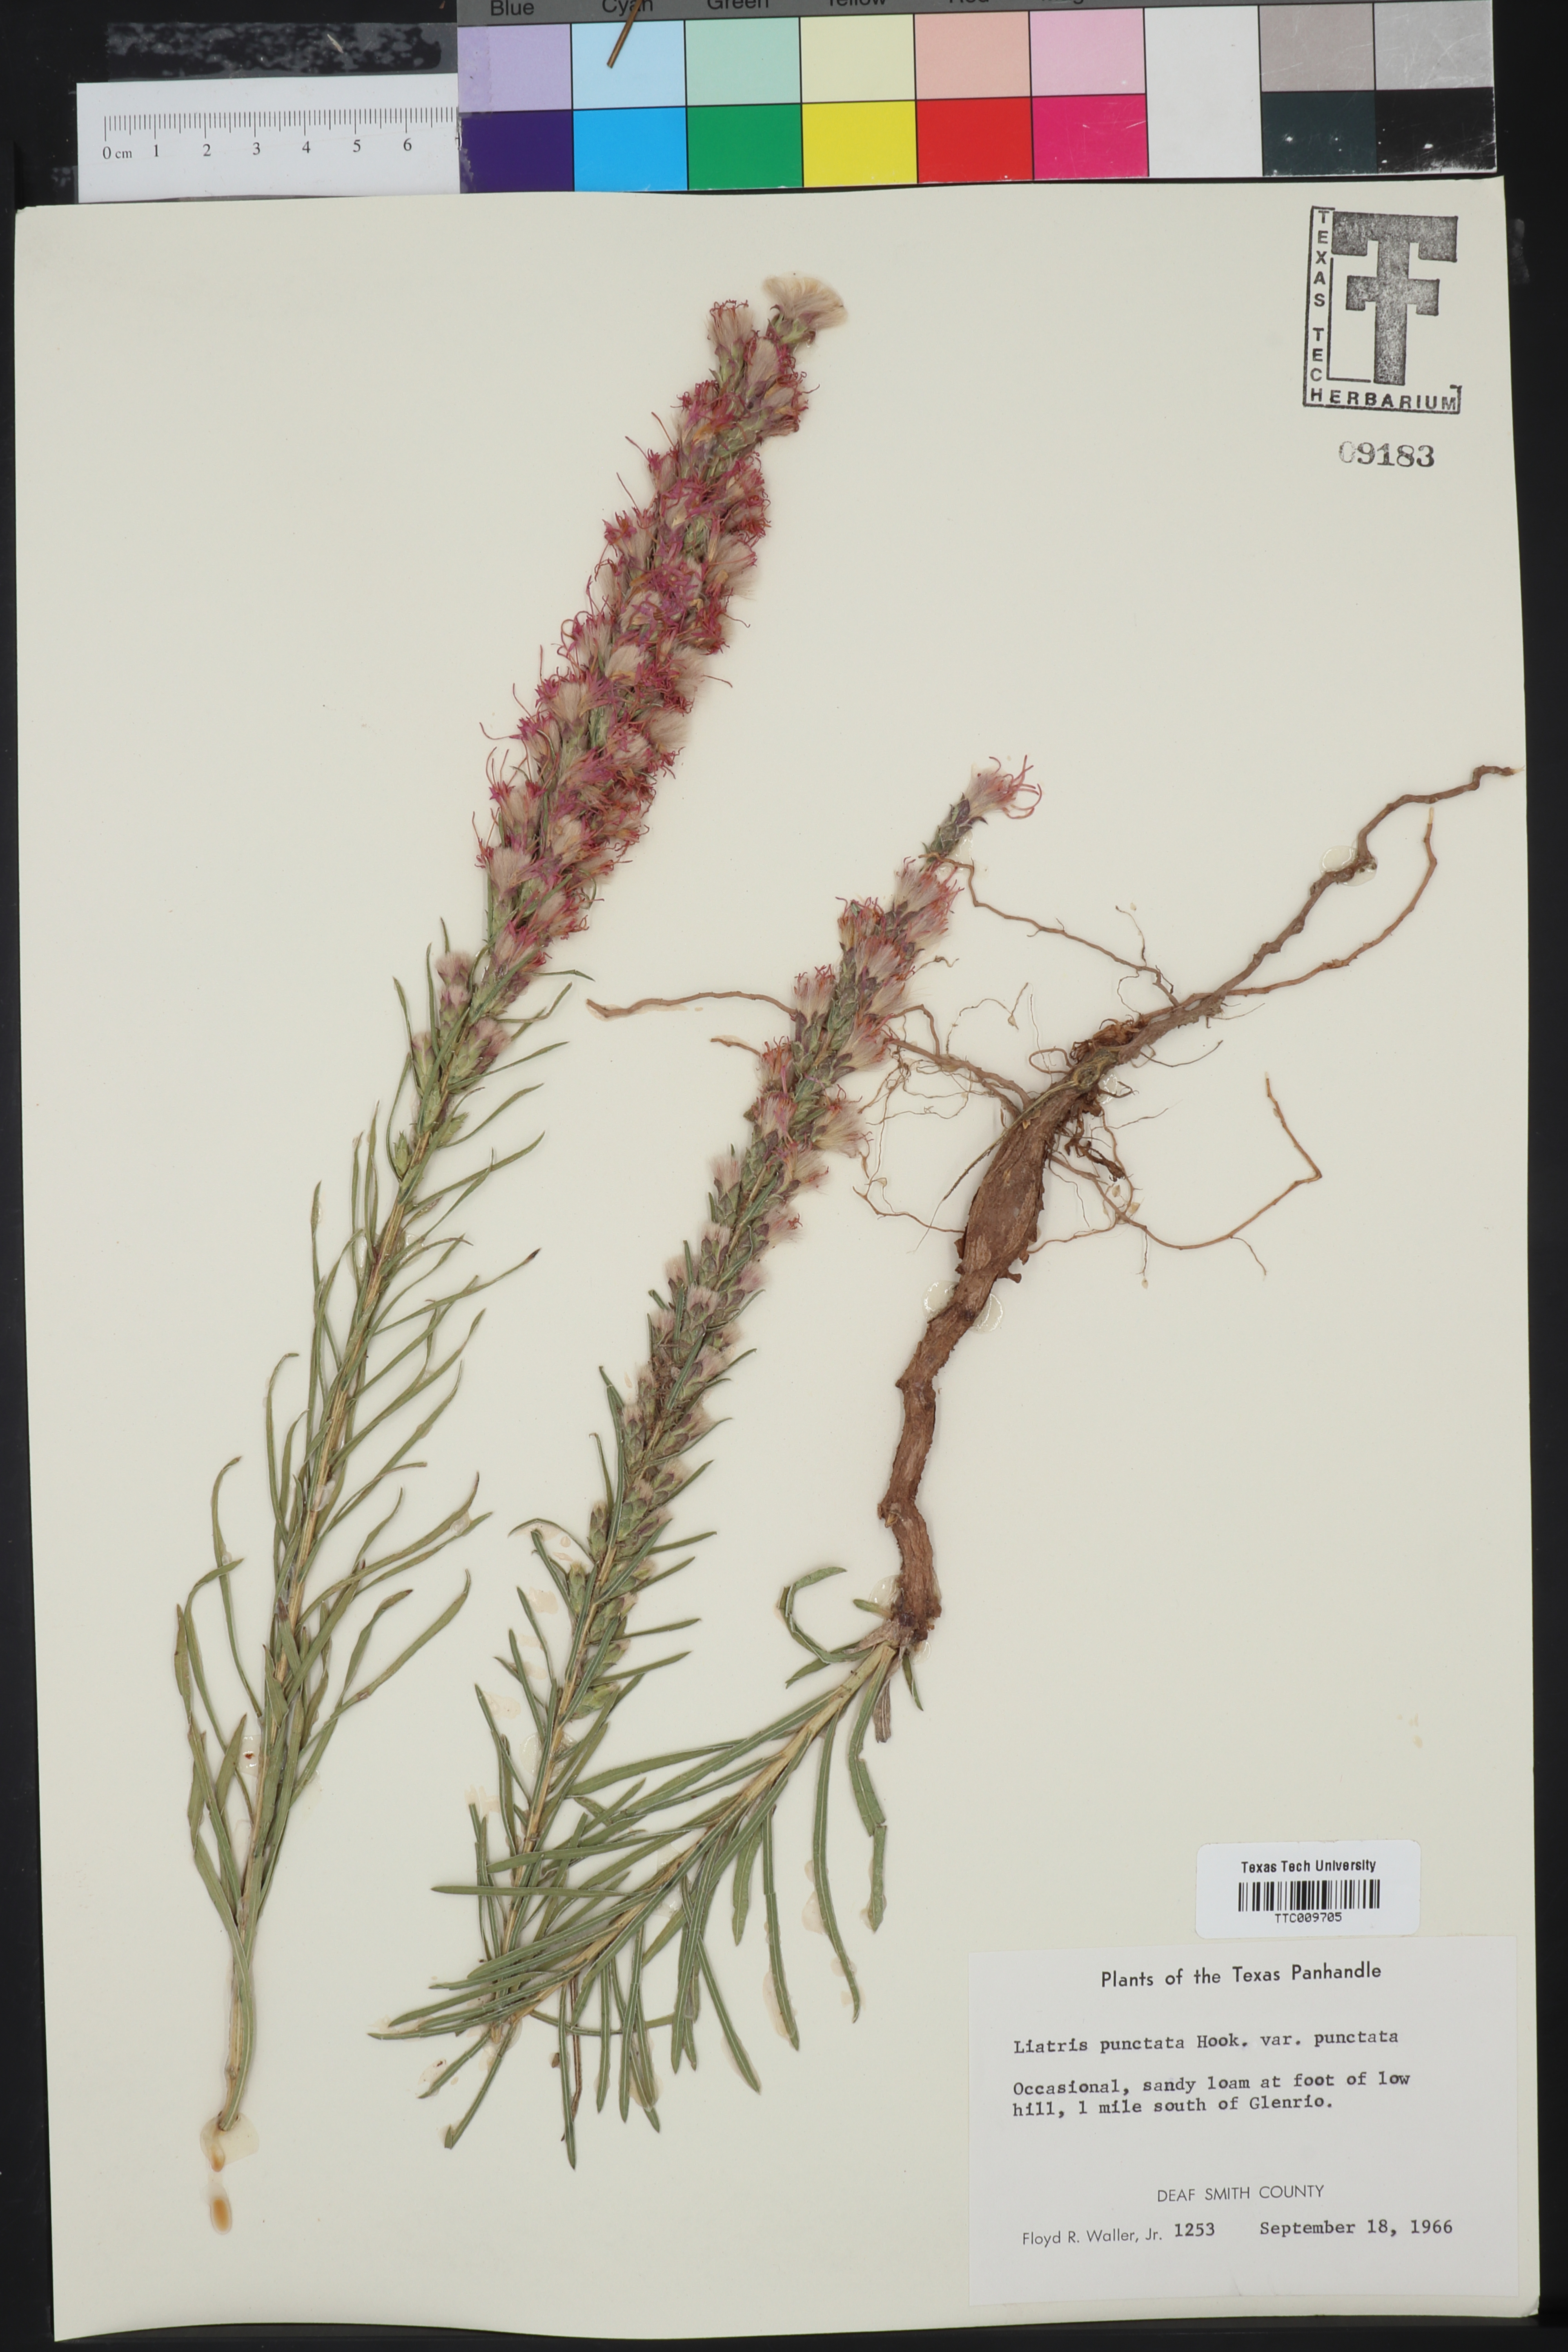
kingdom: Plantae
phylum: Tracheophyta
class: Magnoliopsida
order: Asterales
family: Asteraceae
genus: Liatris
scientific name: Liatris punctata
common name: Dotted gayfeather
